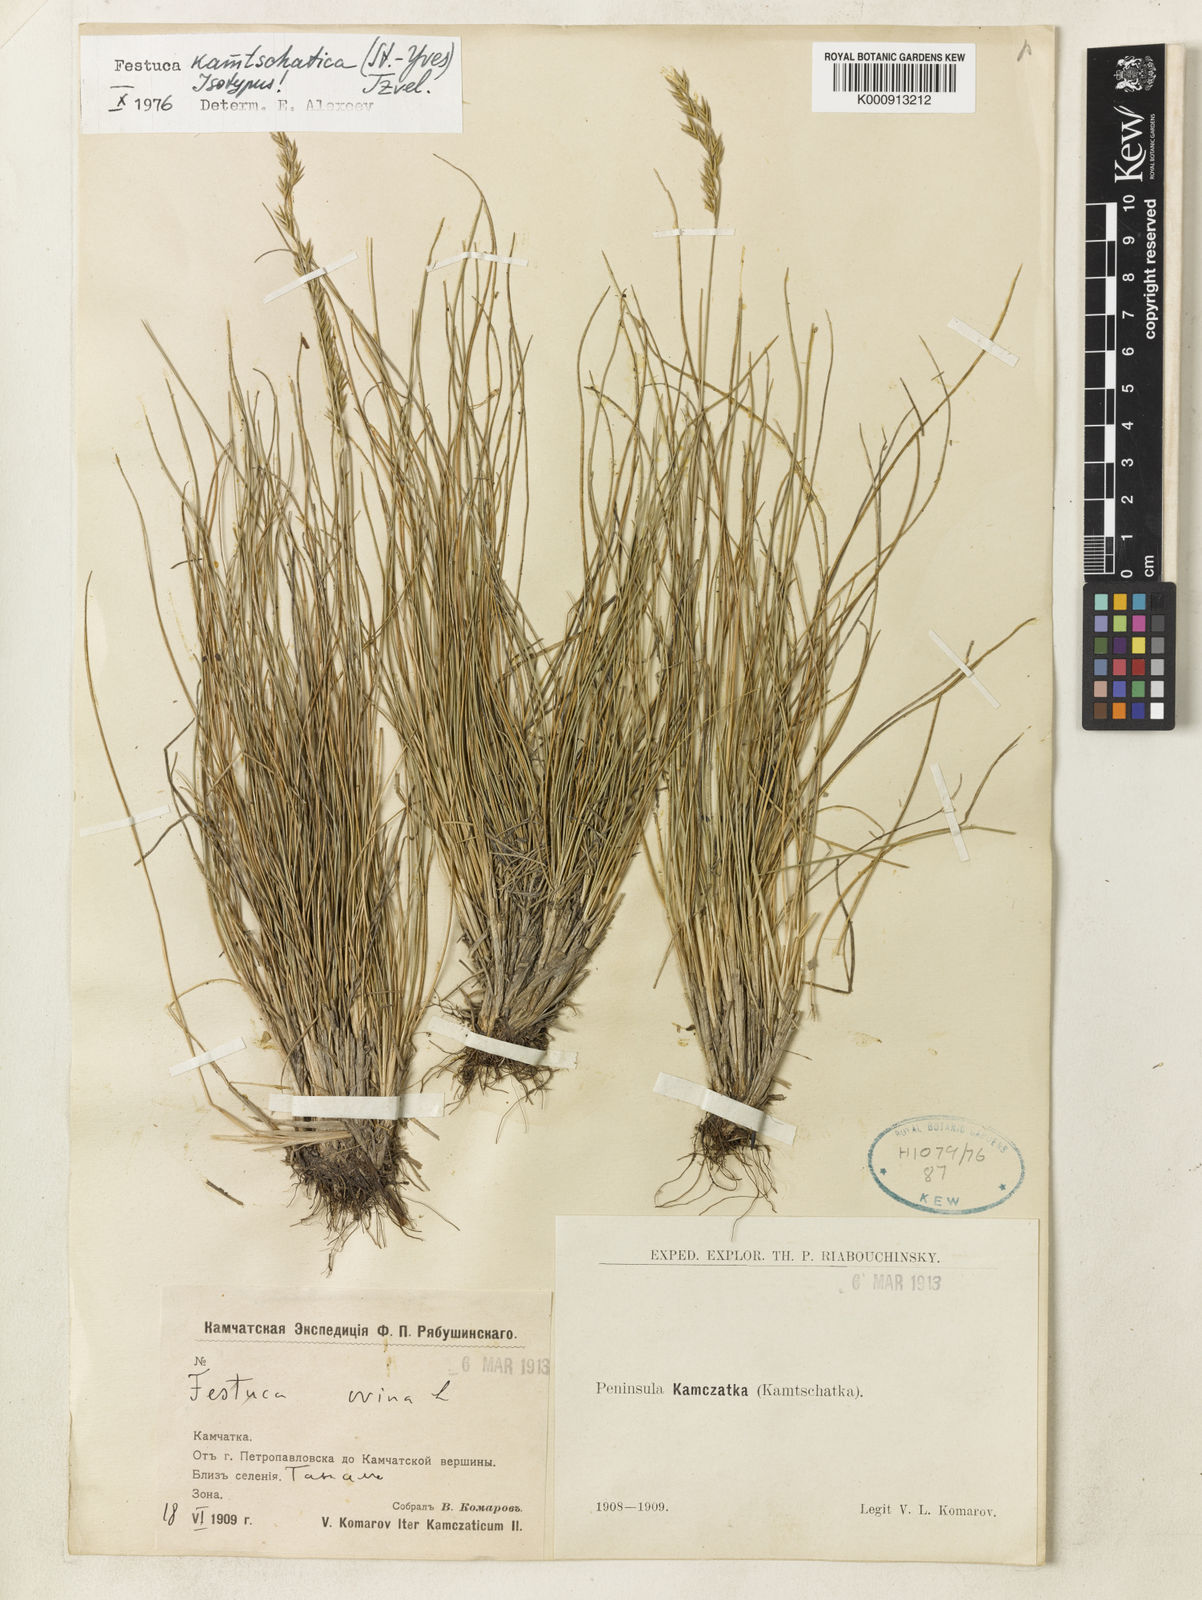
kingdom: Plantae
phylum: Tracheophyta
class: Liliopsida
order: Poales
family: Poaceae
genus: Festuca
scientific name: Festuca kamtschatica
